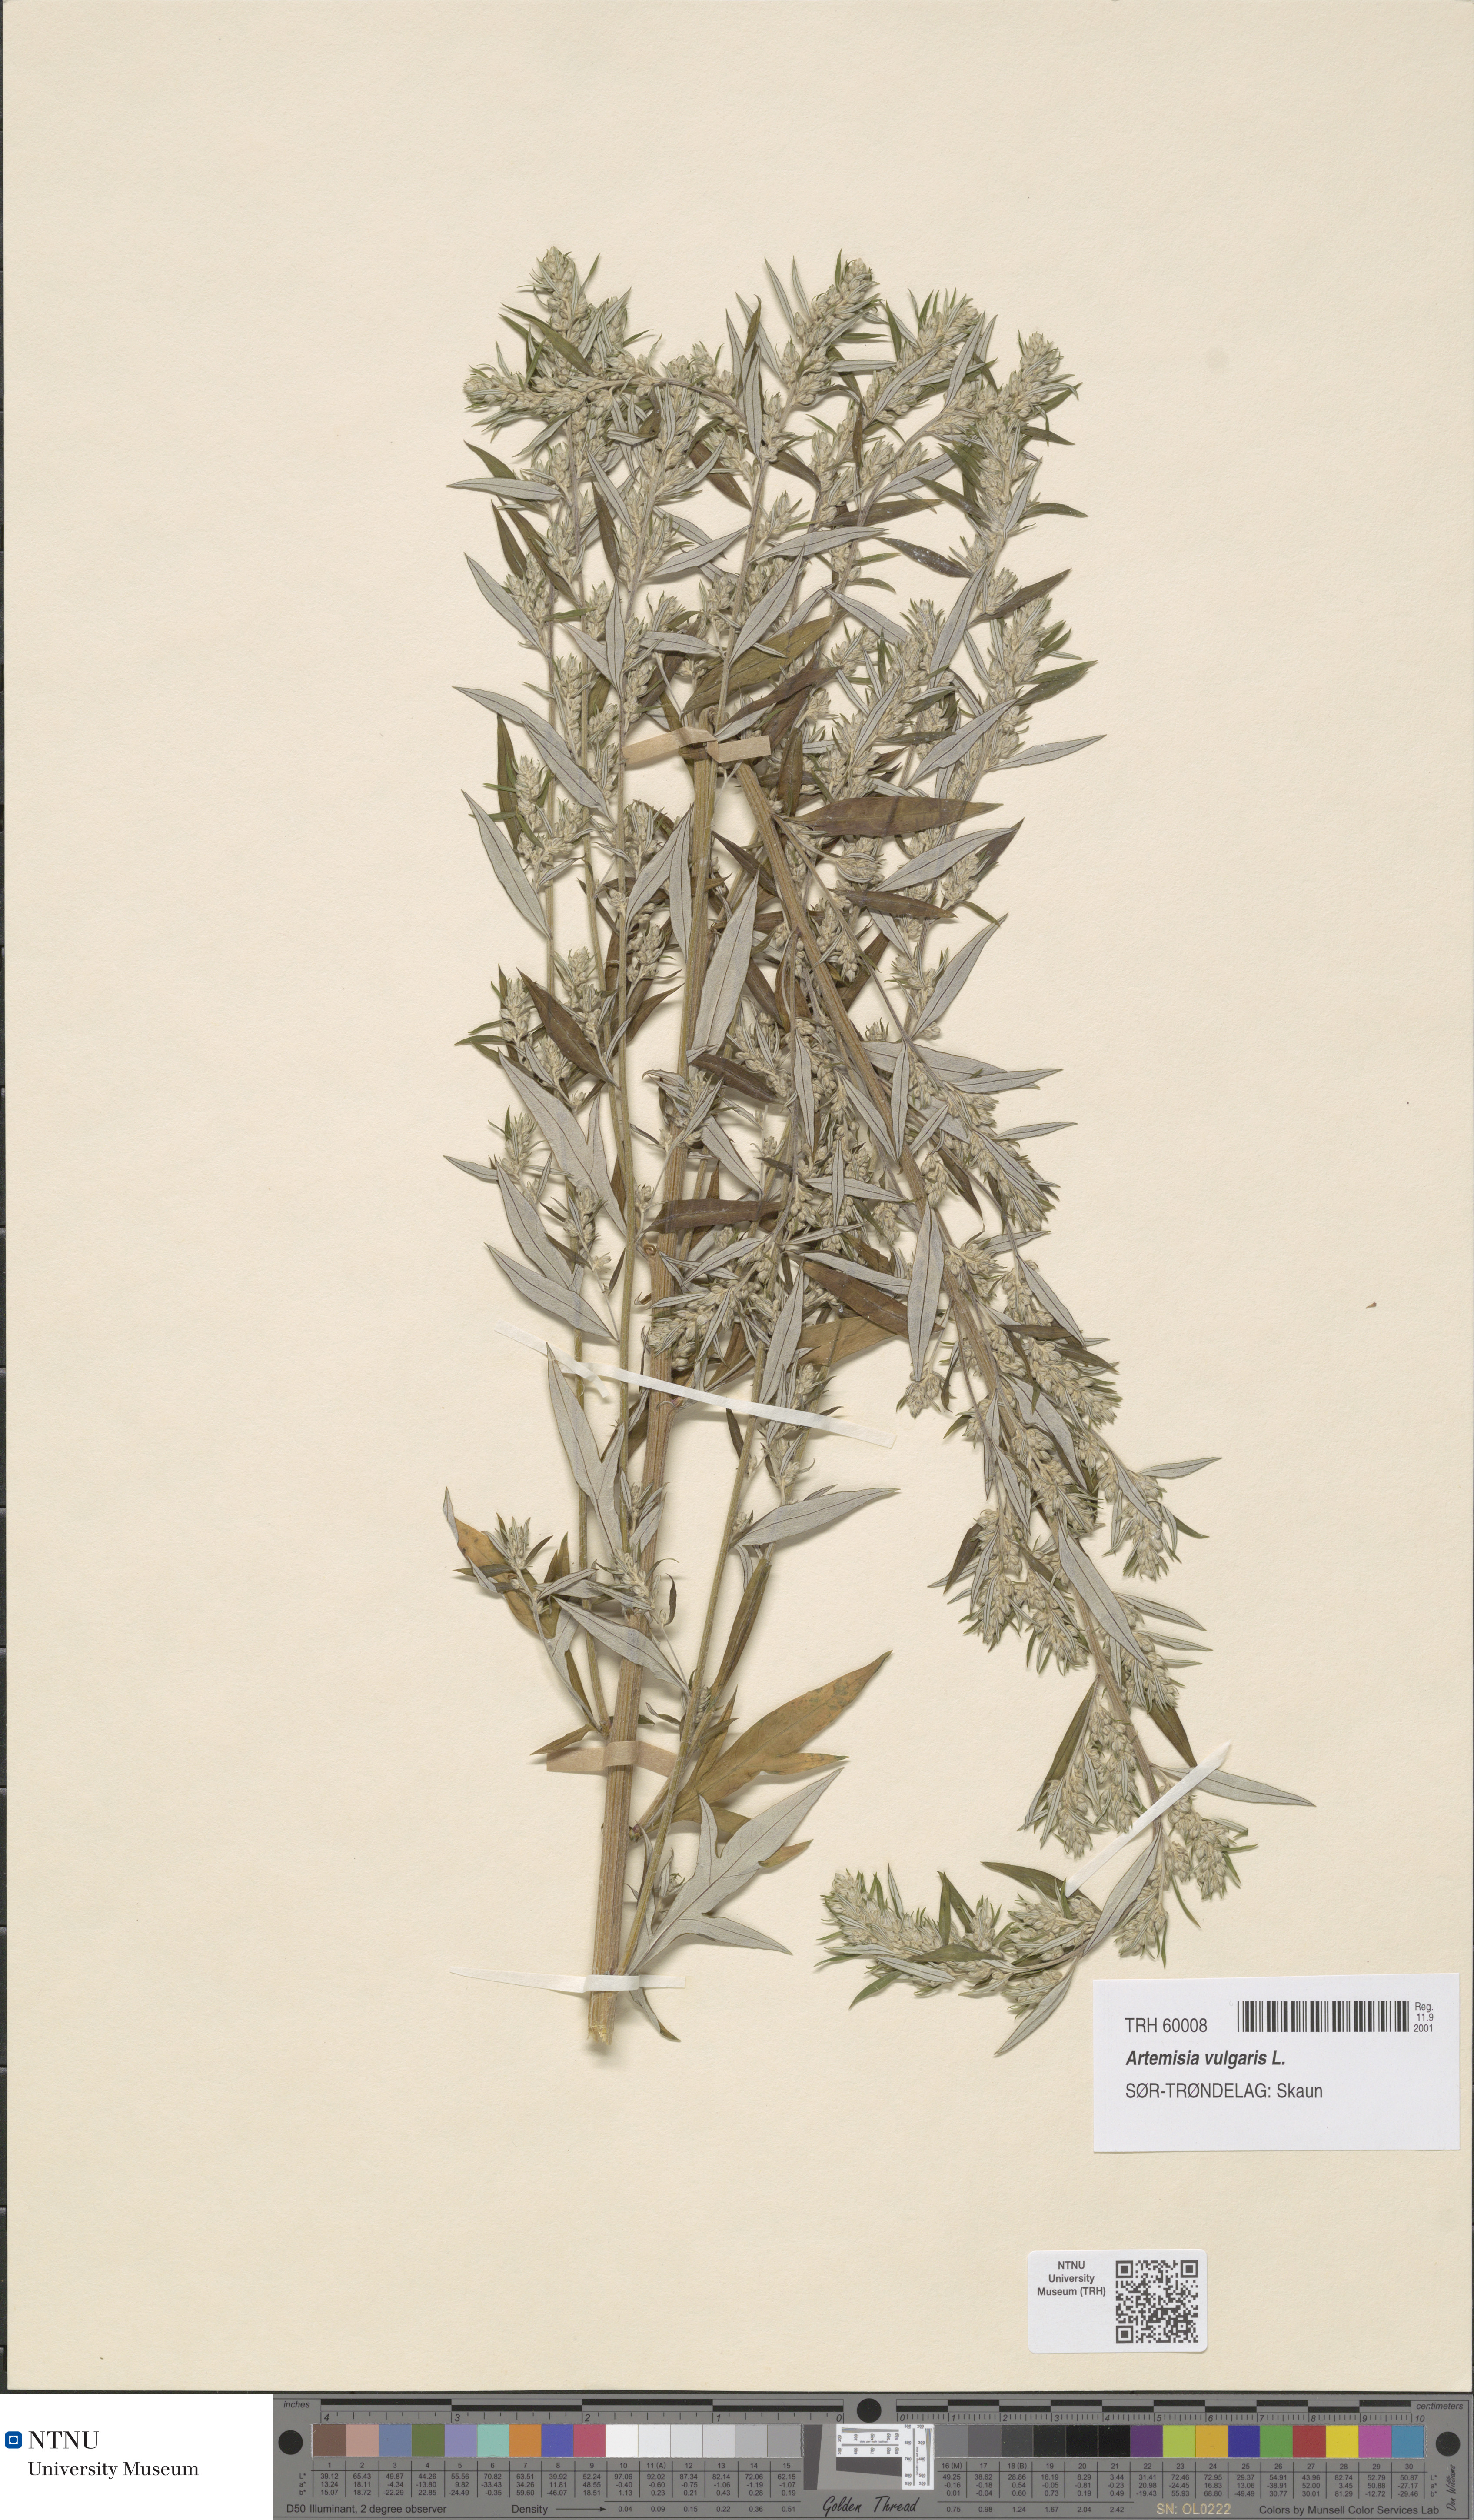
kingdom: Plantae
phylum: Tracheophyta
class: Magnoliopsida
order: Asterales
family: Asteraceae
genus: Artemisia
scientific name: Artemisia vulgaris
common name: Mugwort
